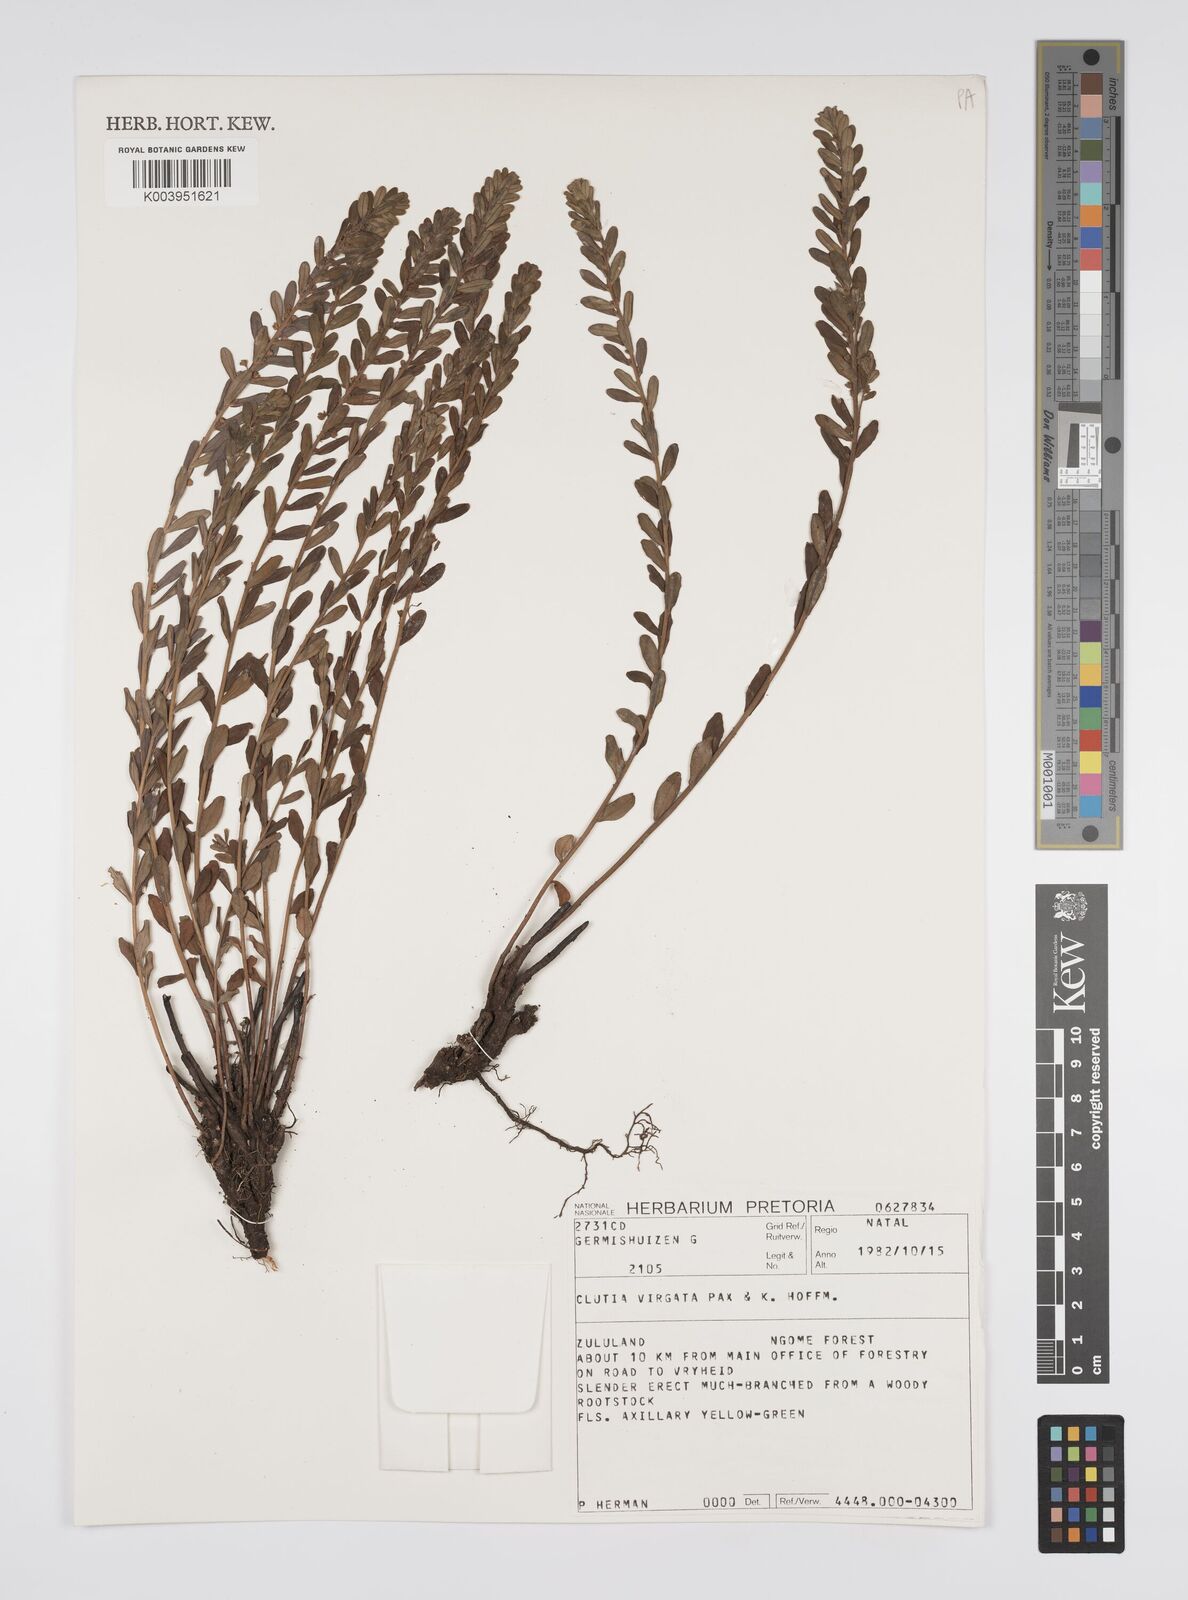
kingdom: Plantae
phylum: Tracheophyta
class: Magnoliopsida
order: Malpighiales
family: Peraceae
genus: Clutia
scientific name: Clutia virgata
